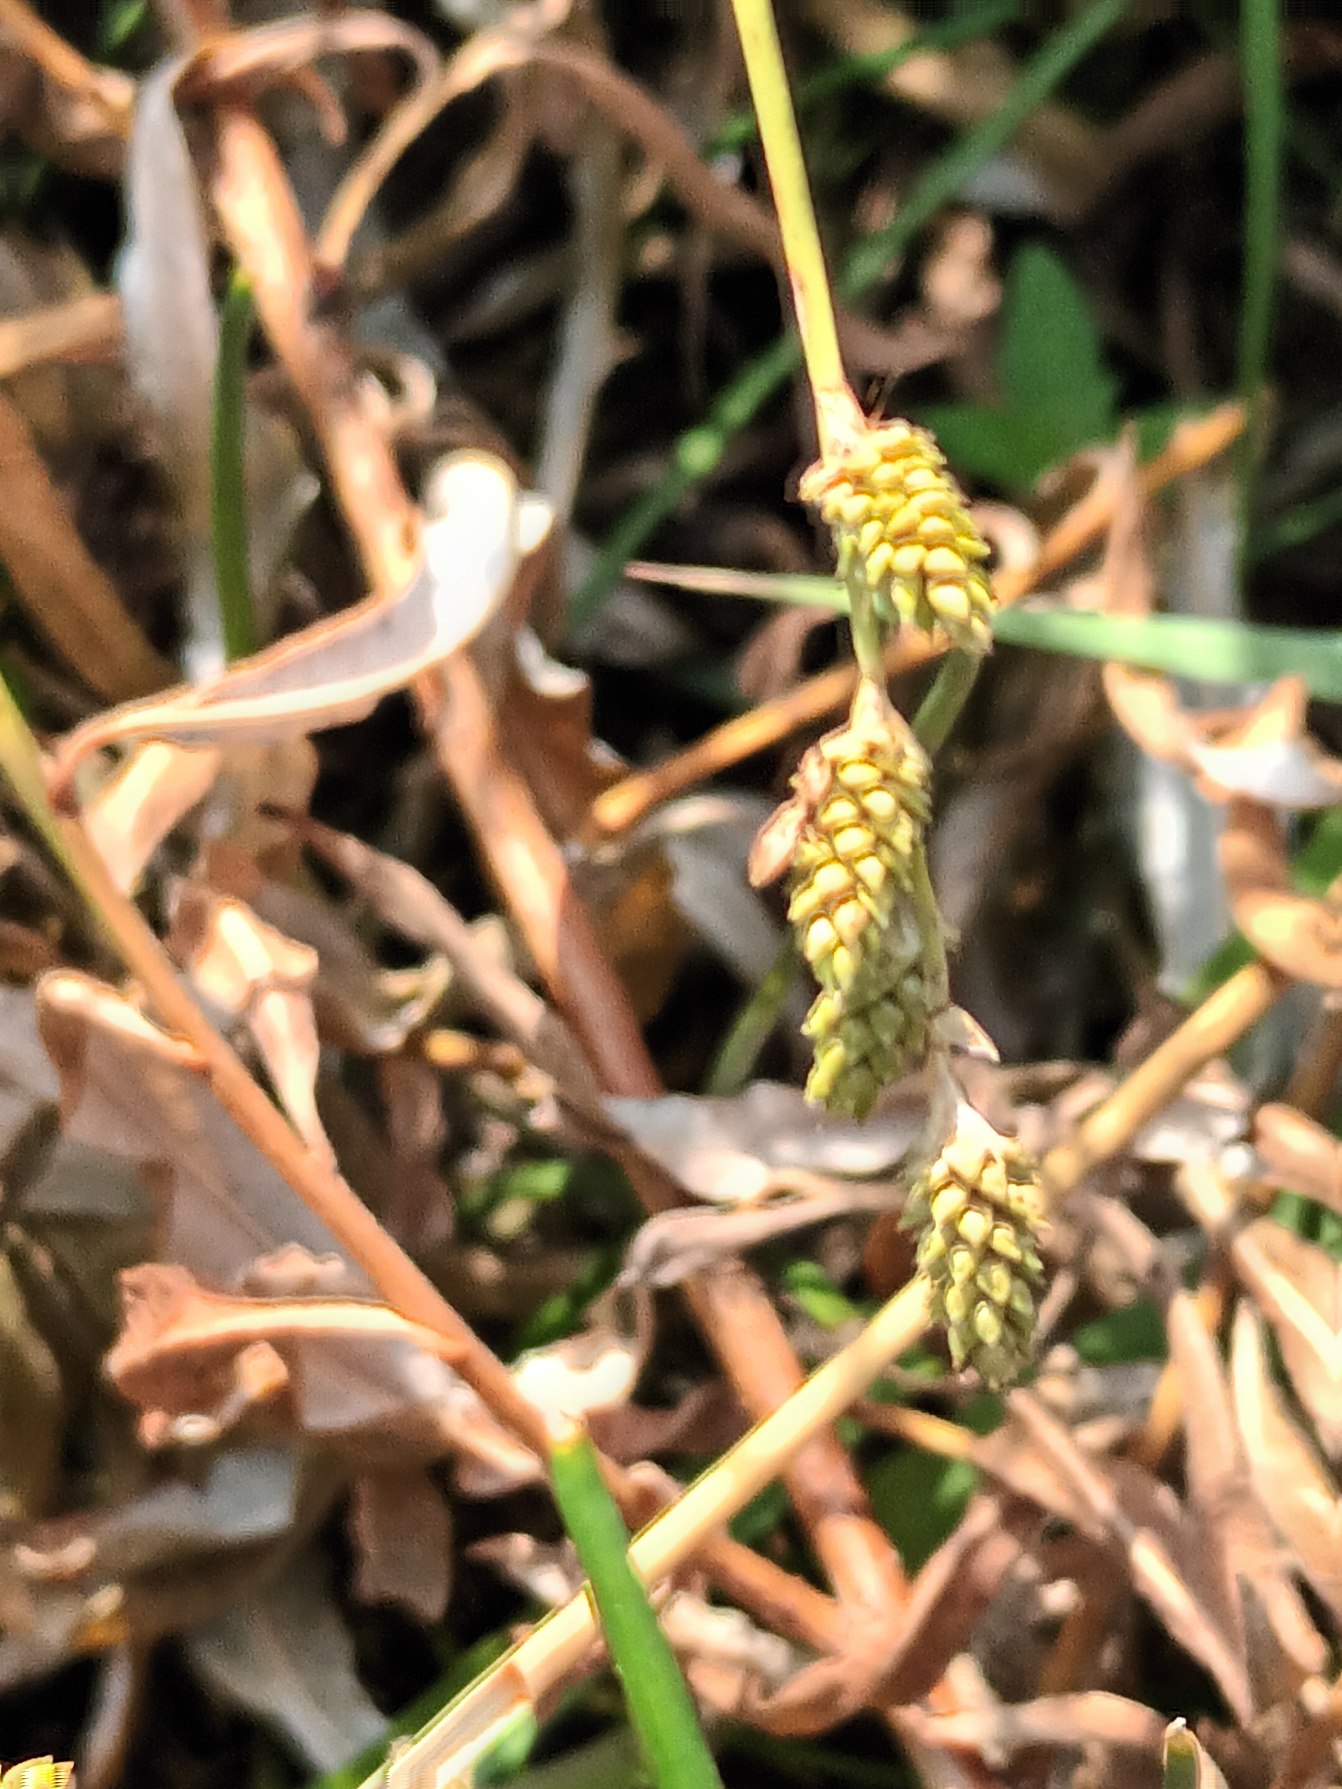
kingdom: Plantae
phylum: Tracheophyta
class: Liliopsida
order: Poales
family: Cyperaceae
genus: Carex
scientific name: Carex canescens
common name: Grå star
